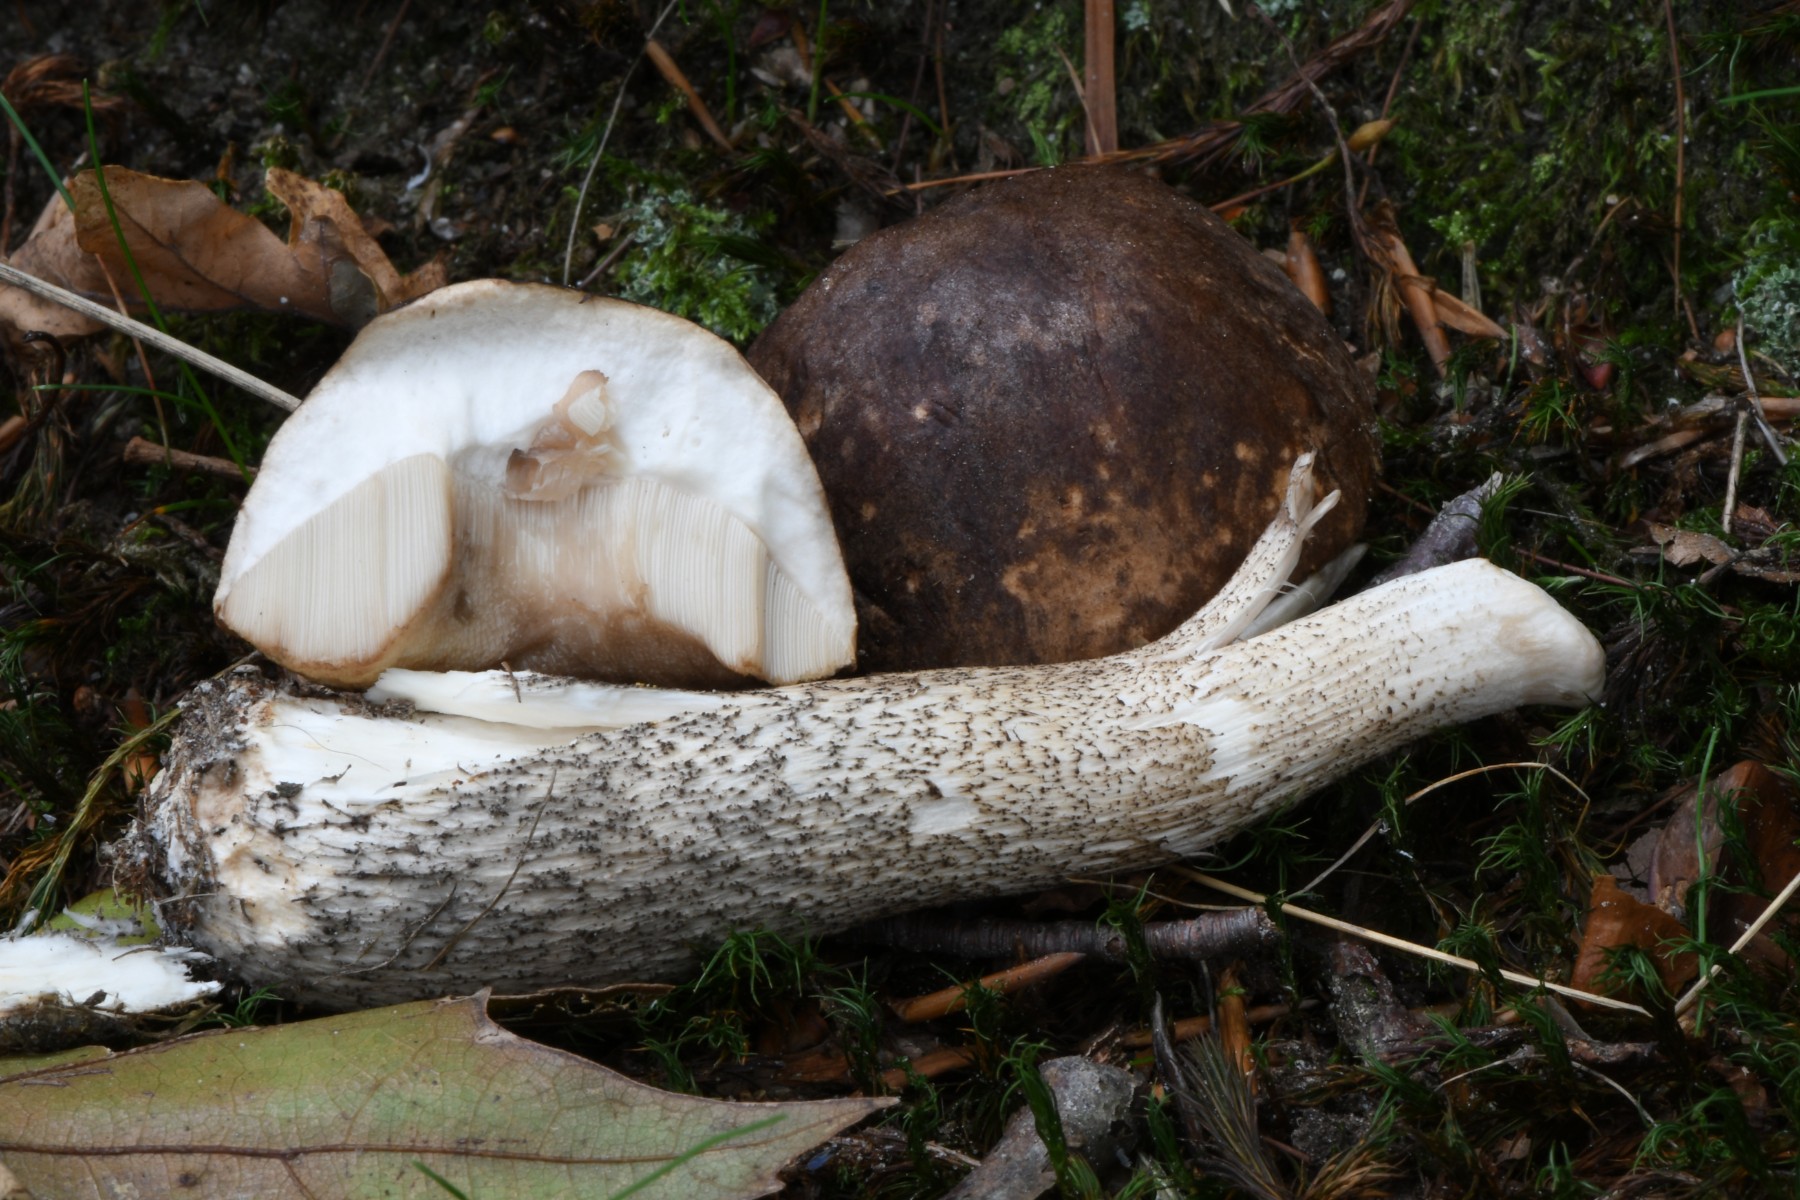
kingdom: Fungi
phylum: Basidiomycota
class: Agaricomycetes
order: Boletales
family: Boletaceae
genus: Leccinum
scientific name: Leccinum scabrum
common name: brun skælrørhat
